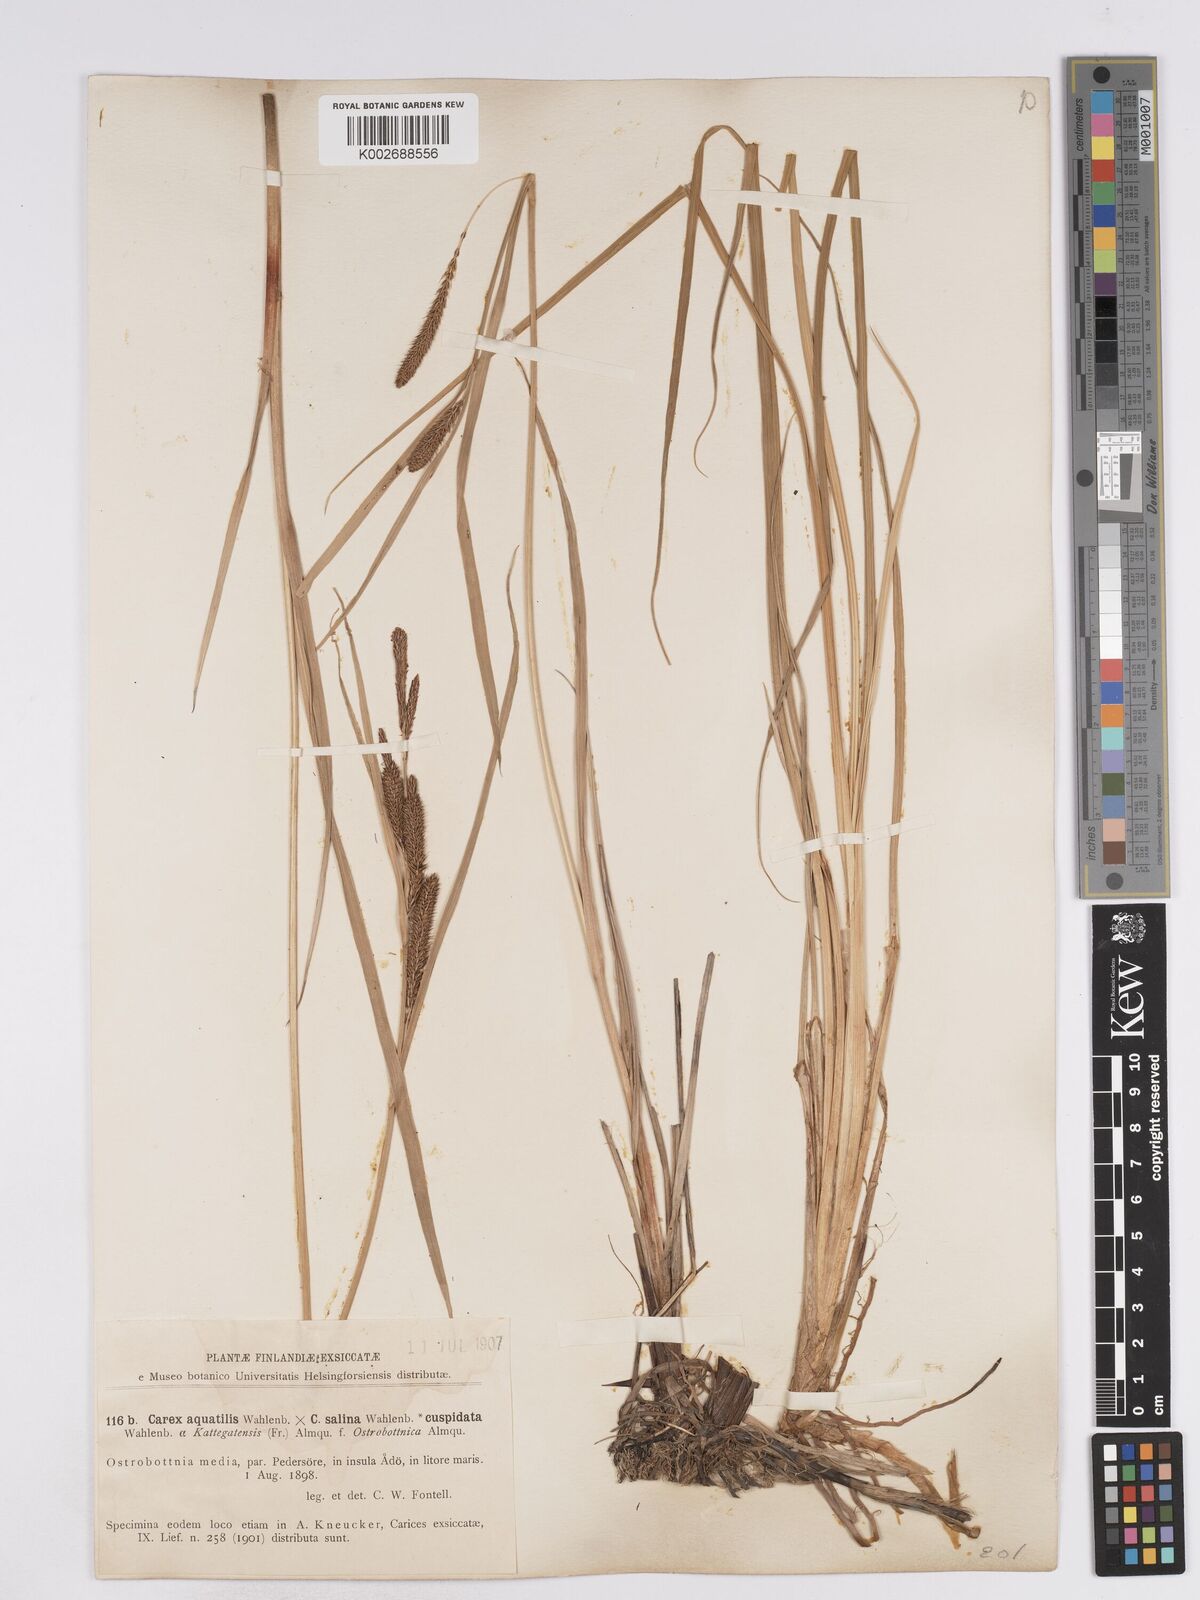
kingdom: Plantae
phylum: Tracheophyta
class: Liliopsida
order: Poales
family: Cyperaceae
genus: Carex
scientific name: Carex recta
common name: Estuarine sedge
